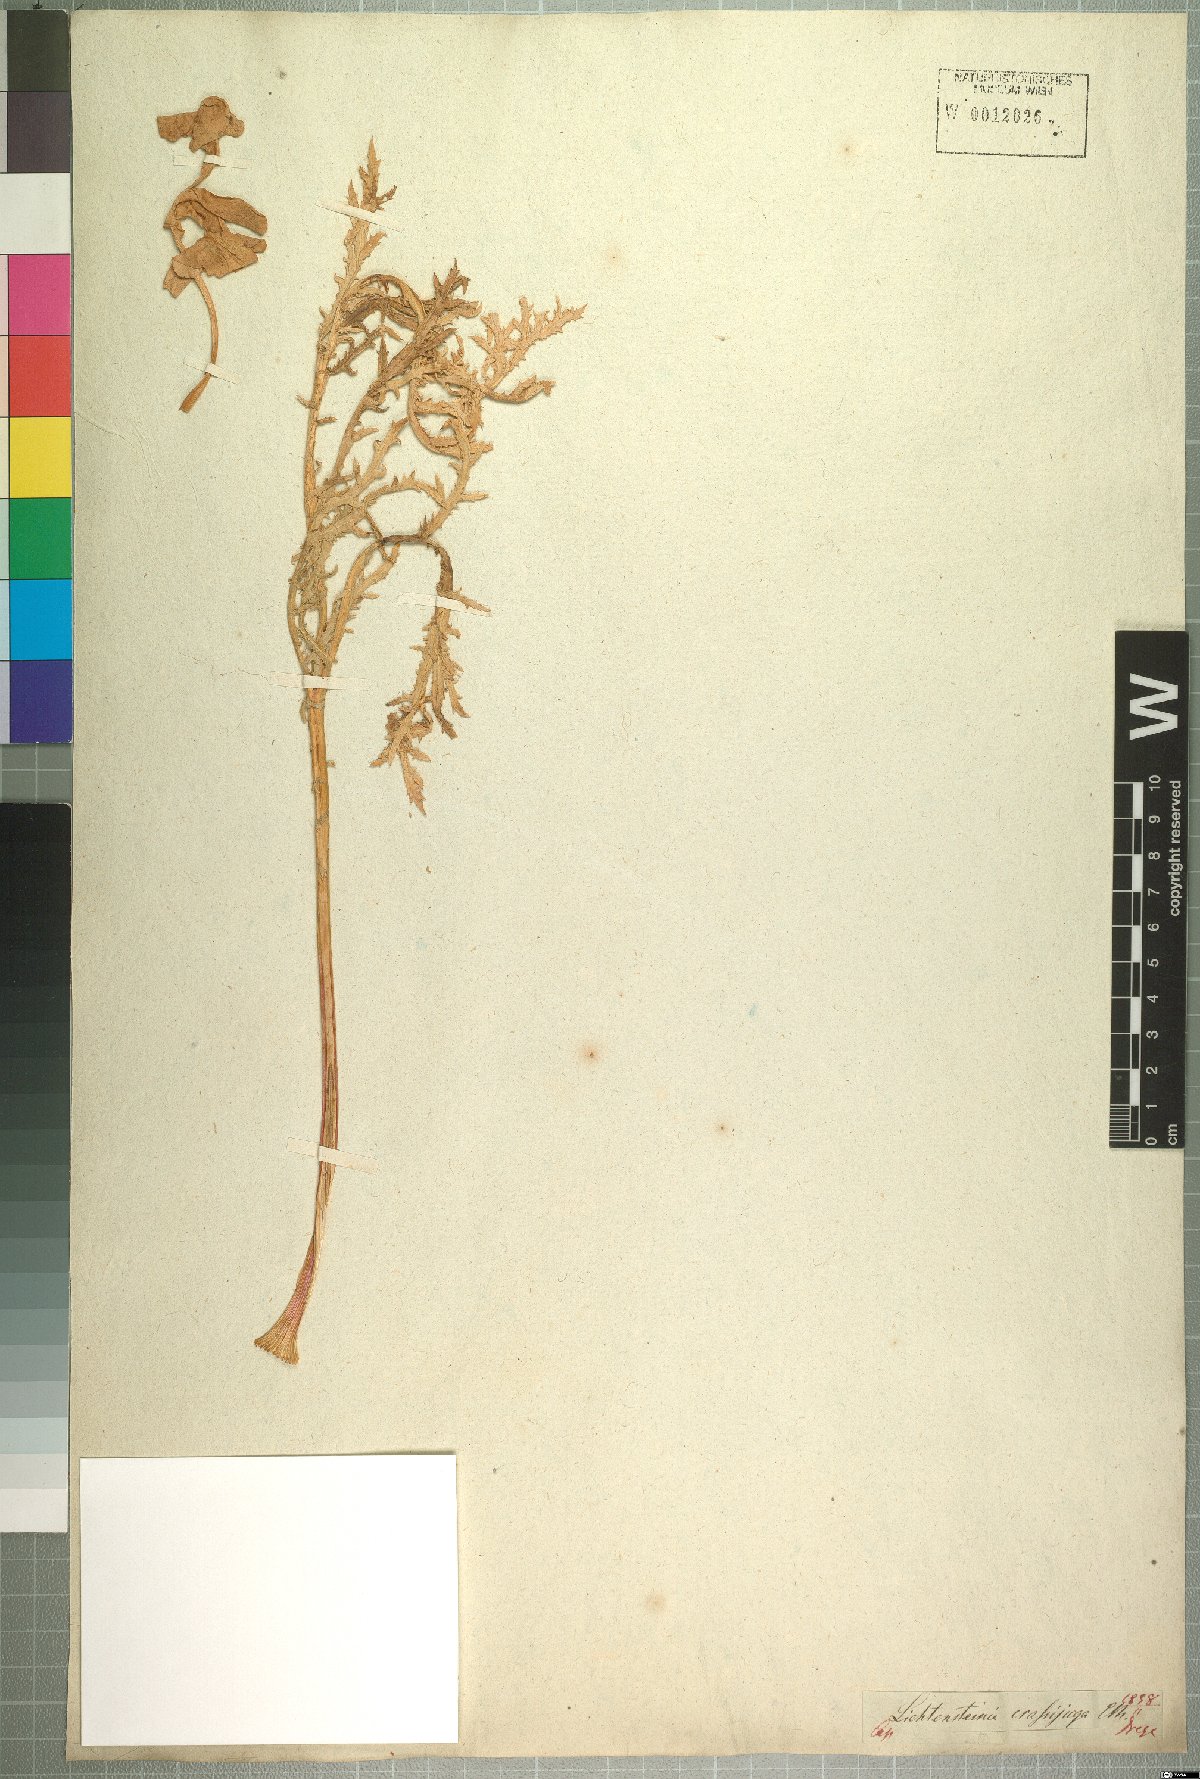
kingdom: Plantae
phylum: Tracheophyta
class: Magnoliopsida
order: Apiales
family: Apiaceae
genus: Lichtensteinia
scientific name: Lichtensteinia trifida
